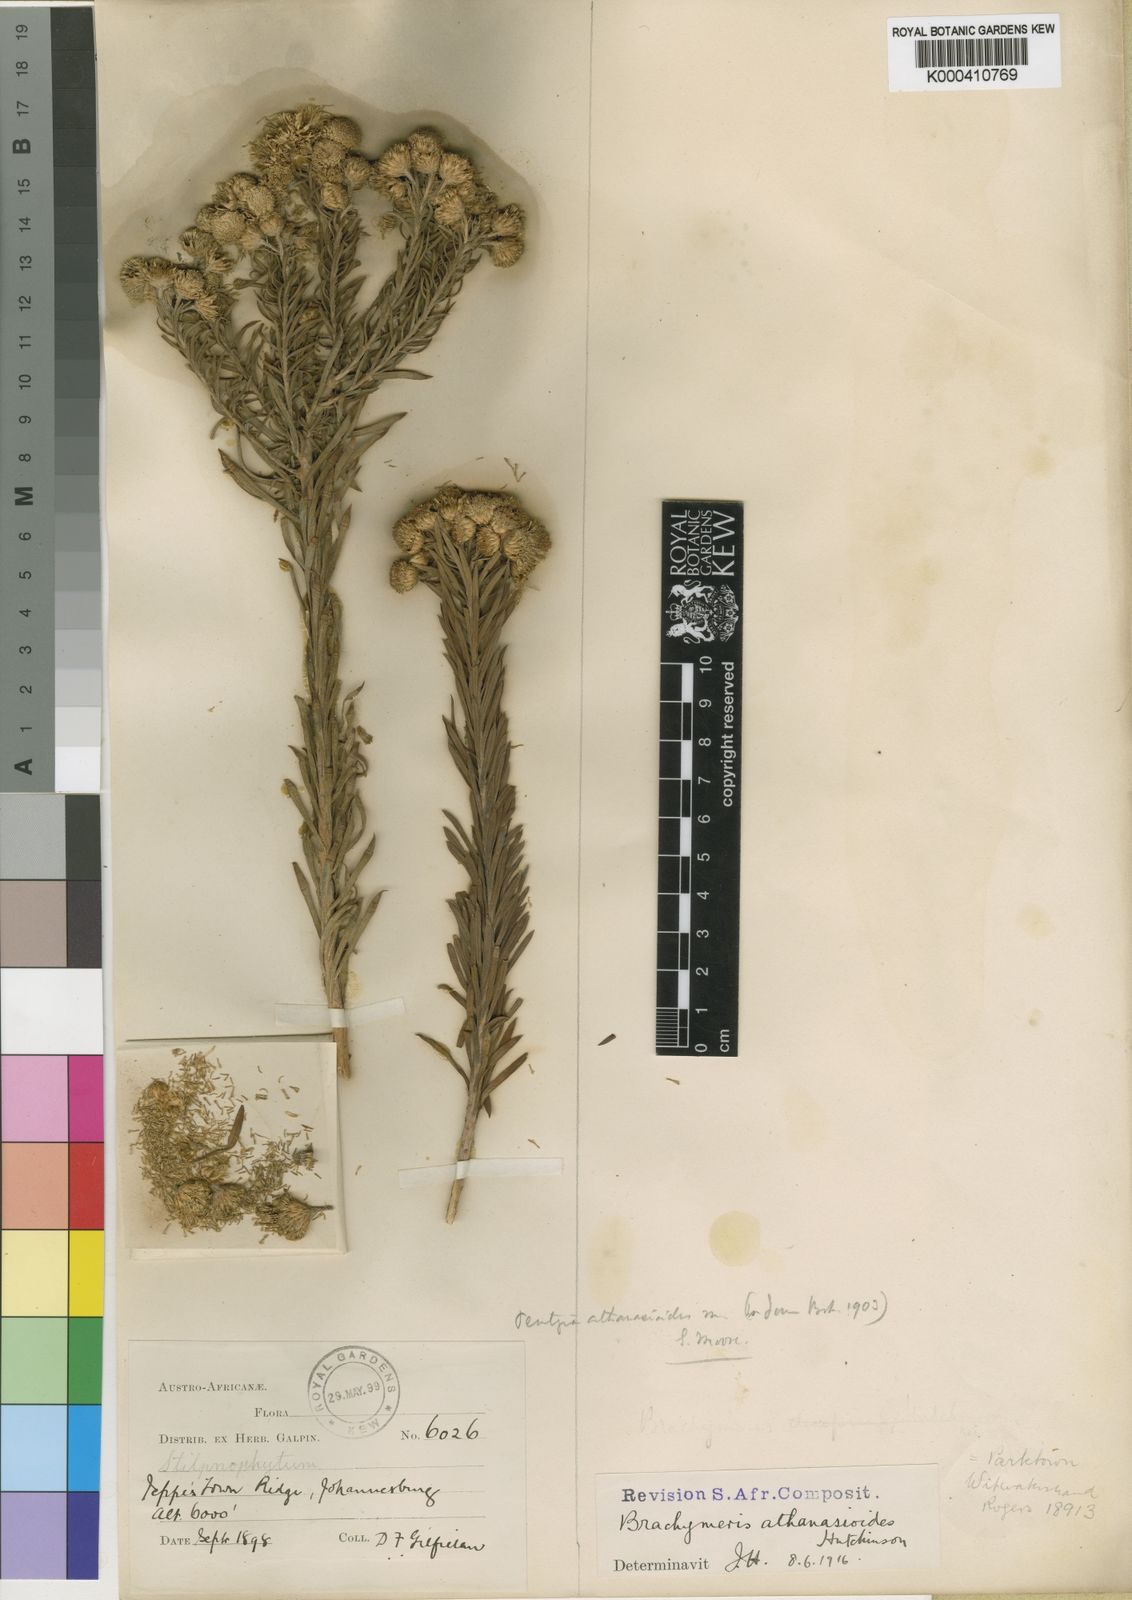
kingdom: Plantae
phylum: Tracheophyta
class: Magnoliopsida
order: Asterales
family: Asteraceae
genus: Phymaspermum
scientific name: Phymaspermum
